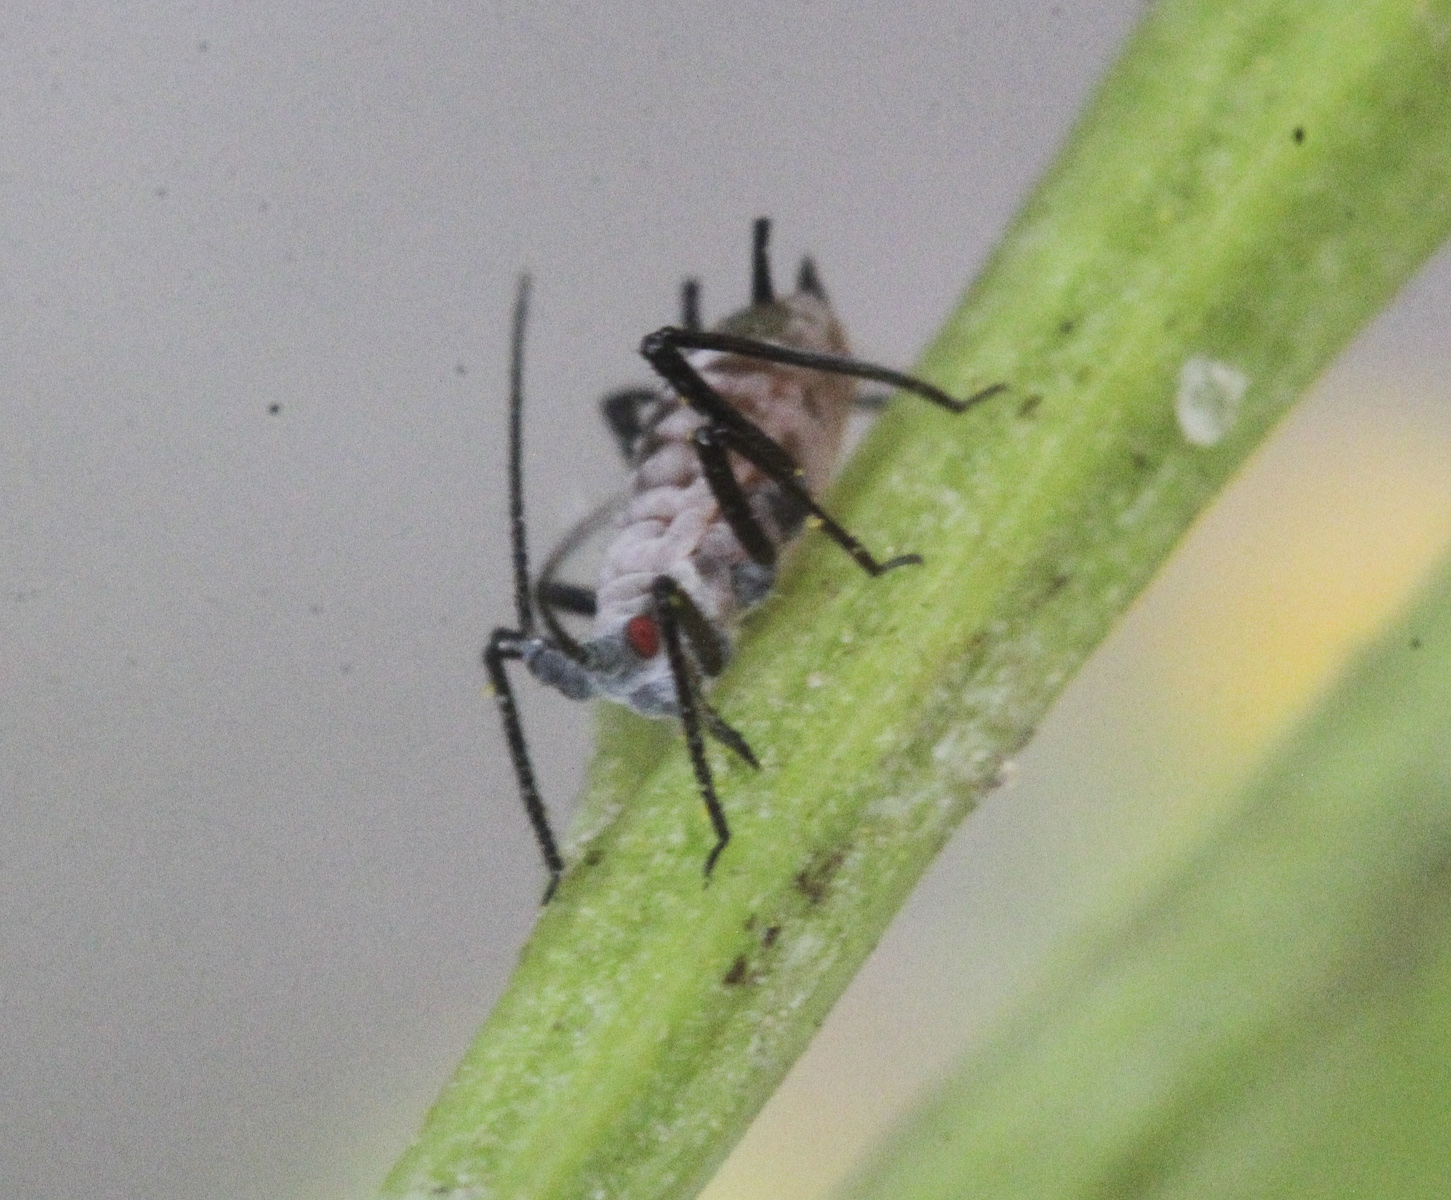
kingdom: Animalia
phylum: Arthropoda
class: Insecta
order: Hemiptera
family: Aphididae
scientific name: Aphididae
